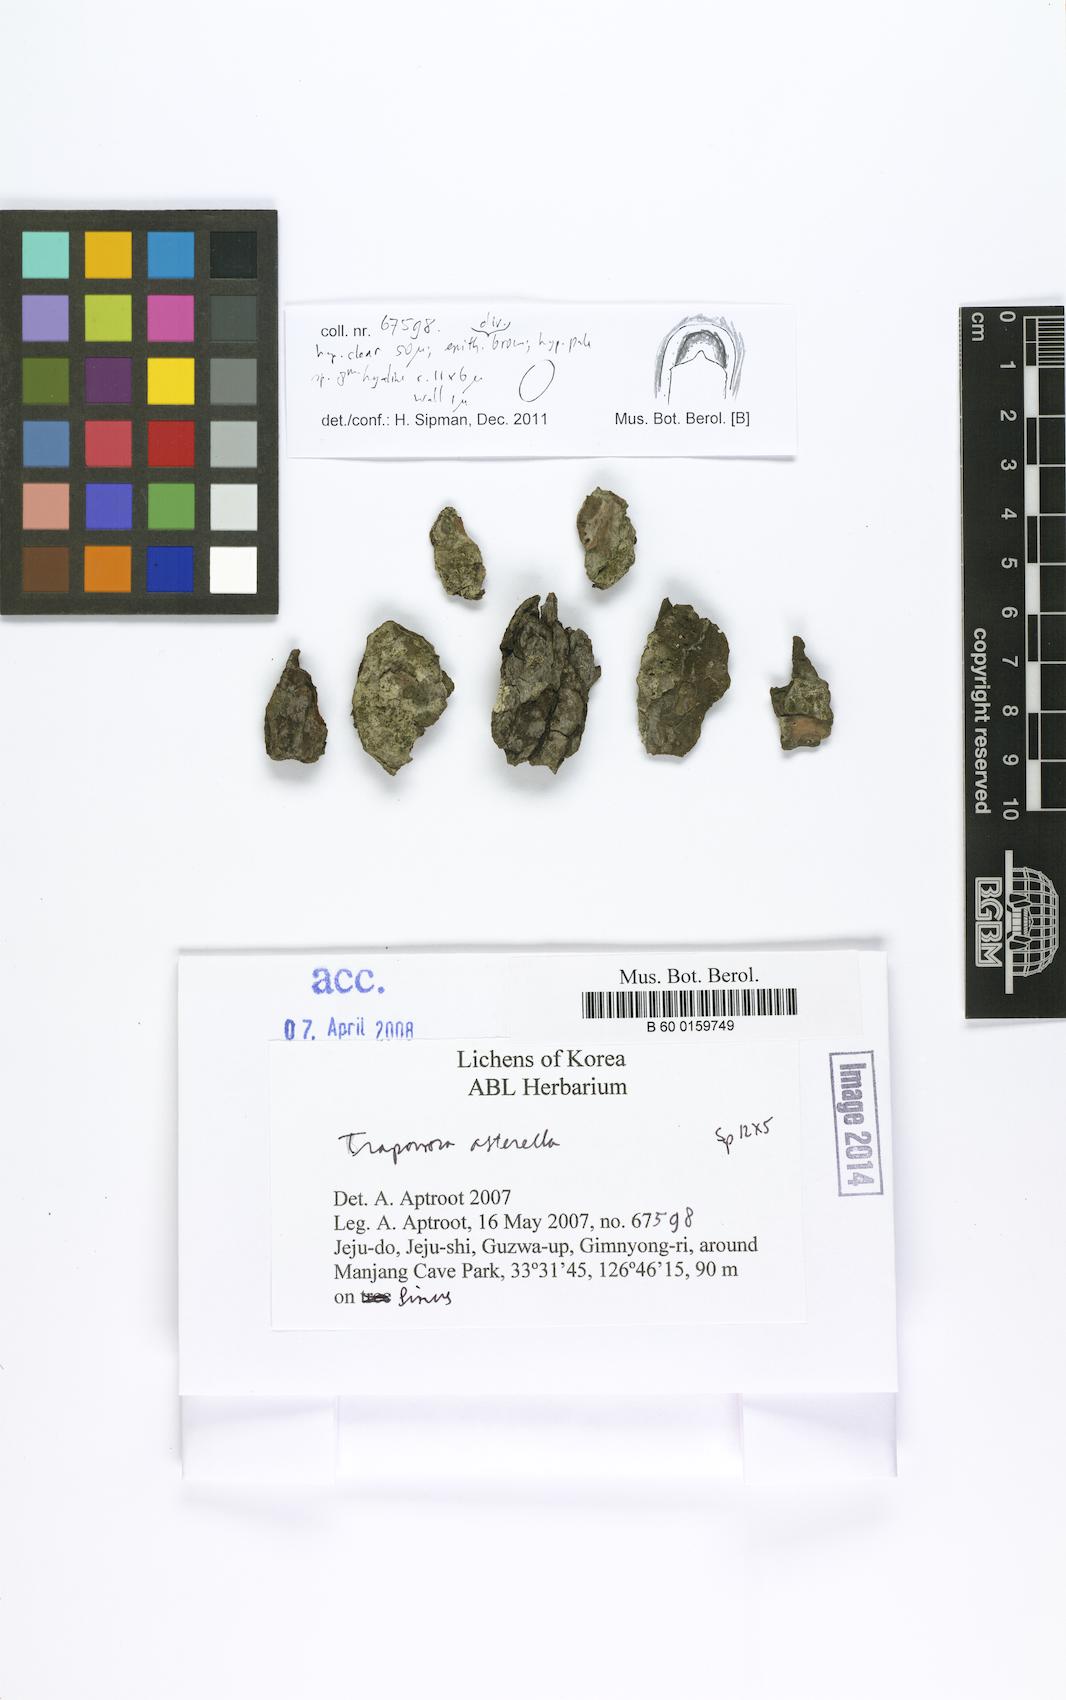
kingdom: Fungi
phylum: Ascomycota
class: Lecanoromycetes
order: Lecanorales
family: Lecanoraceae
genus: Traponora
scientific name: Traponora asterella
